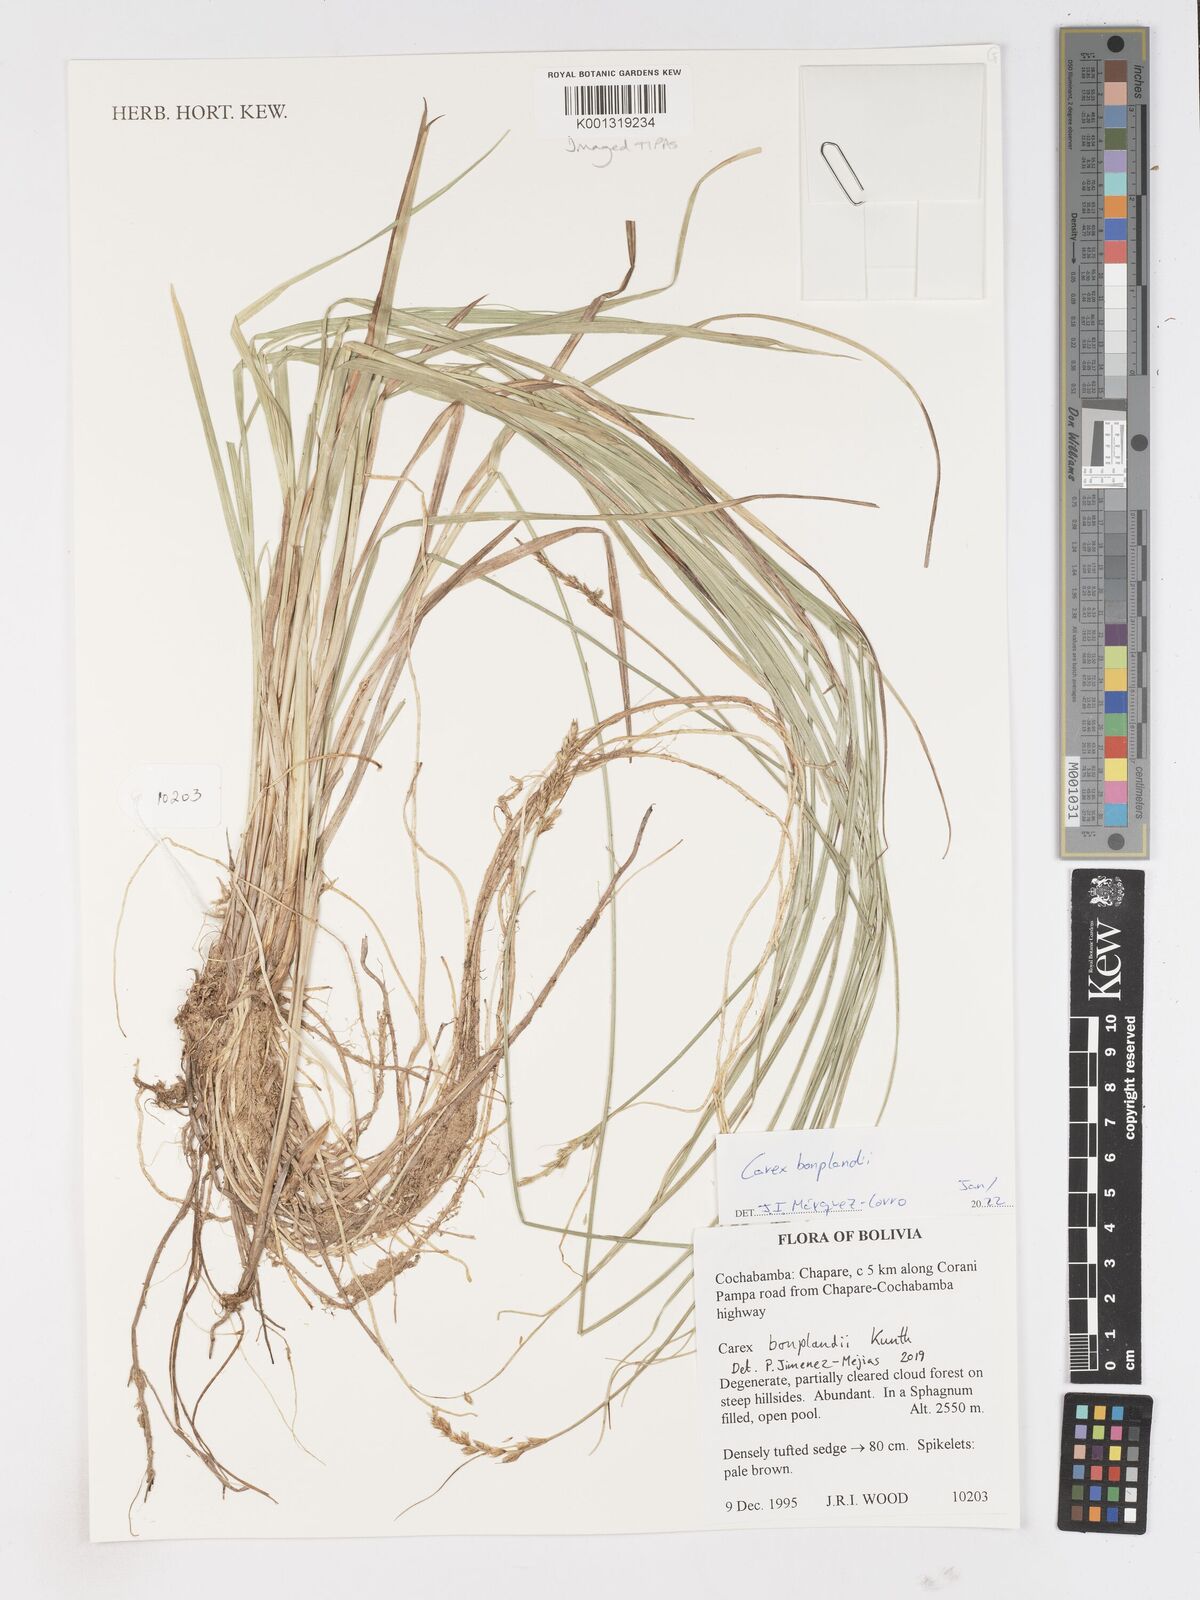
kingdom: Plantae
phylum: Tracheophyta
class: Liliopsida
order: Poales
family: Cyperaceae
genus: Carex
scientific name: Carex bonplandii
